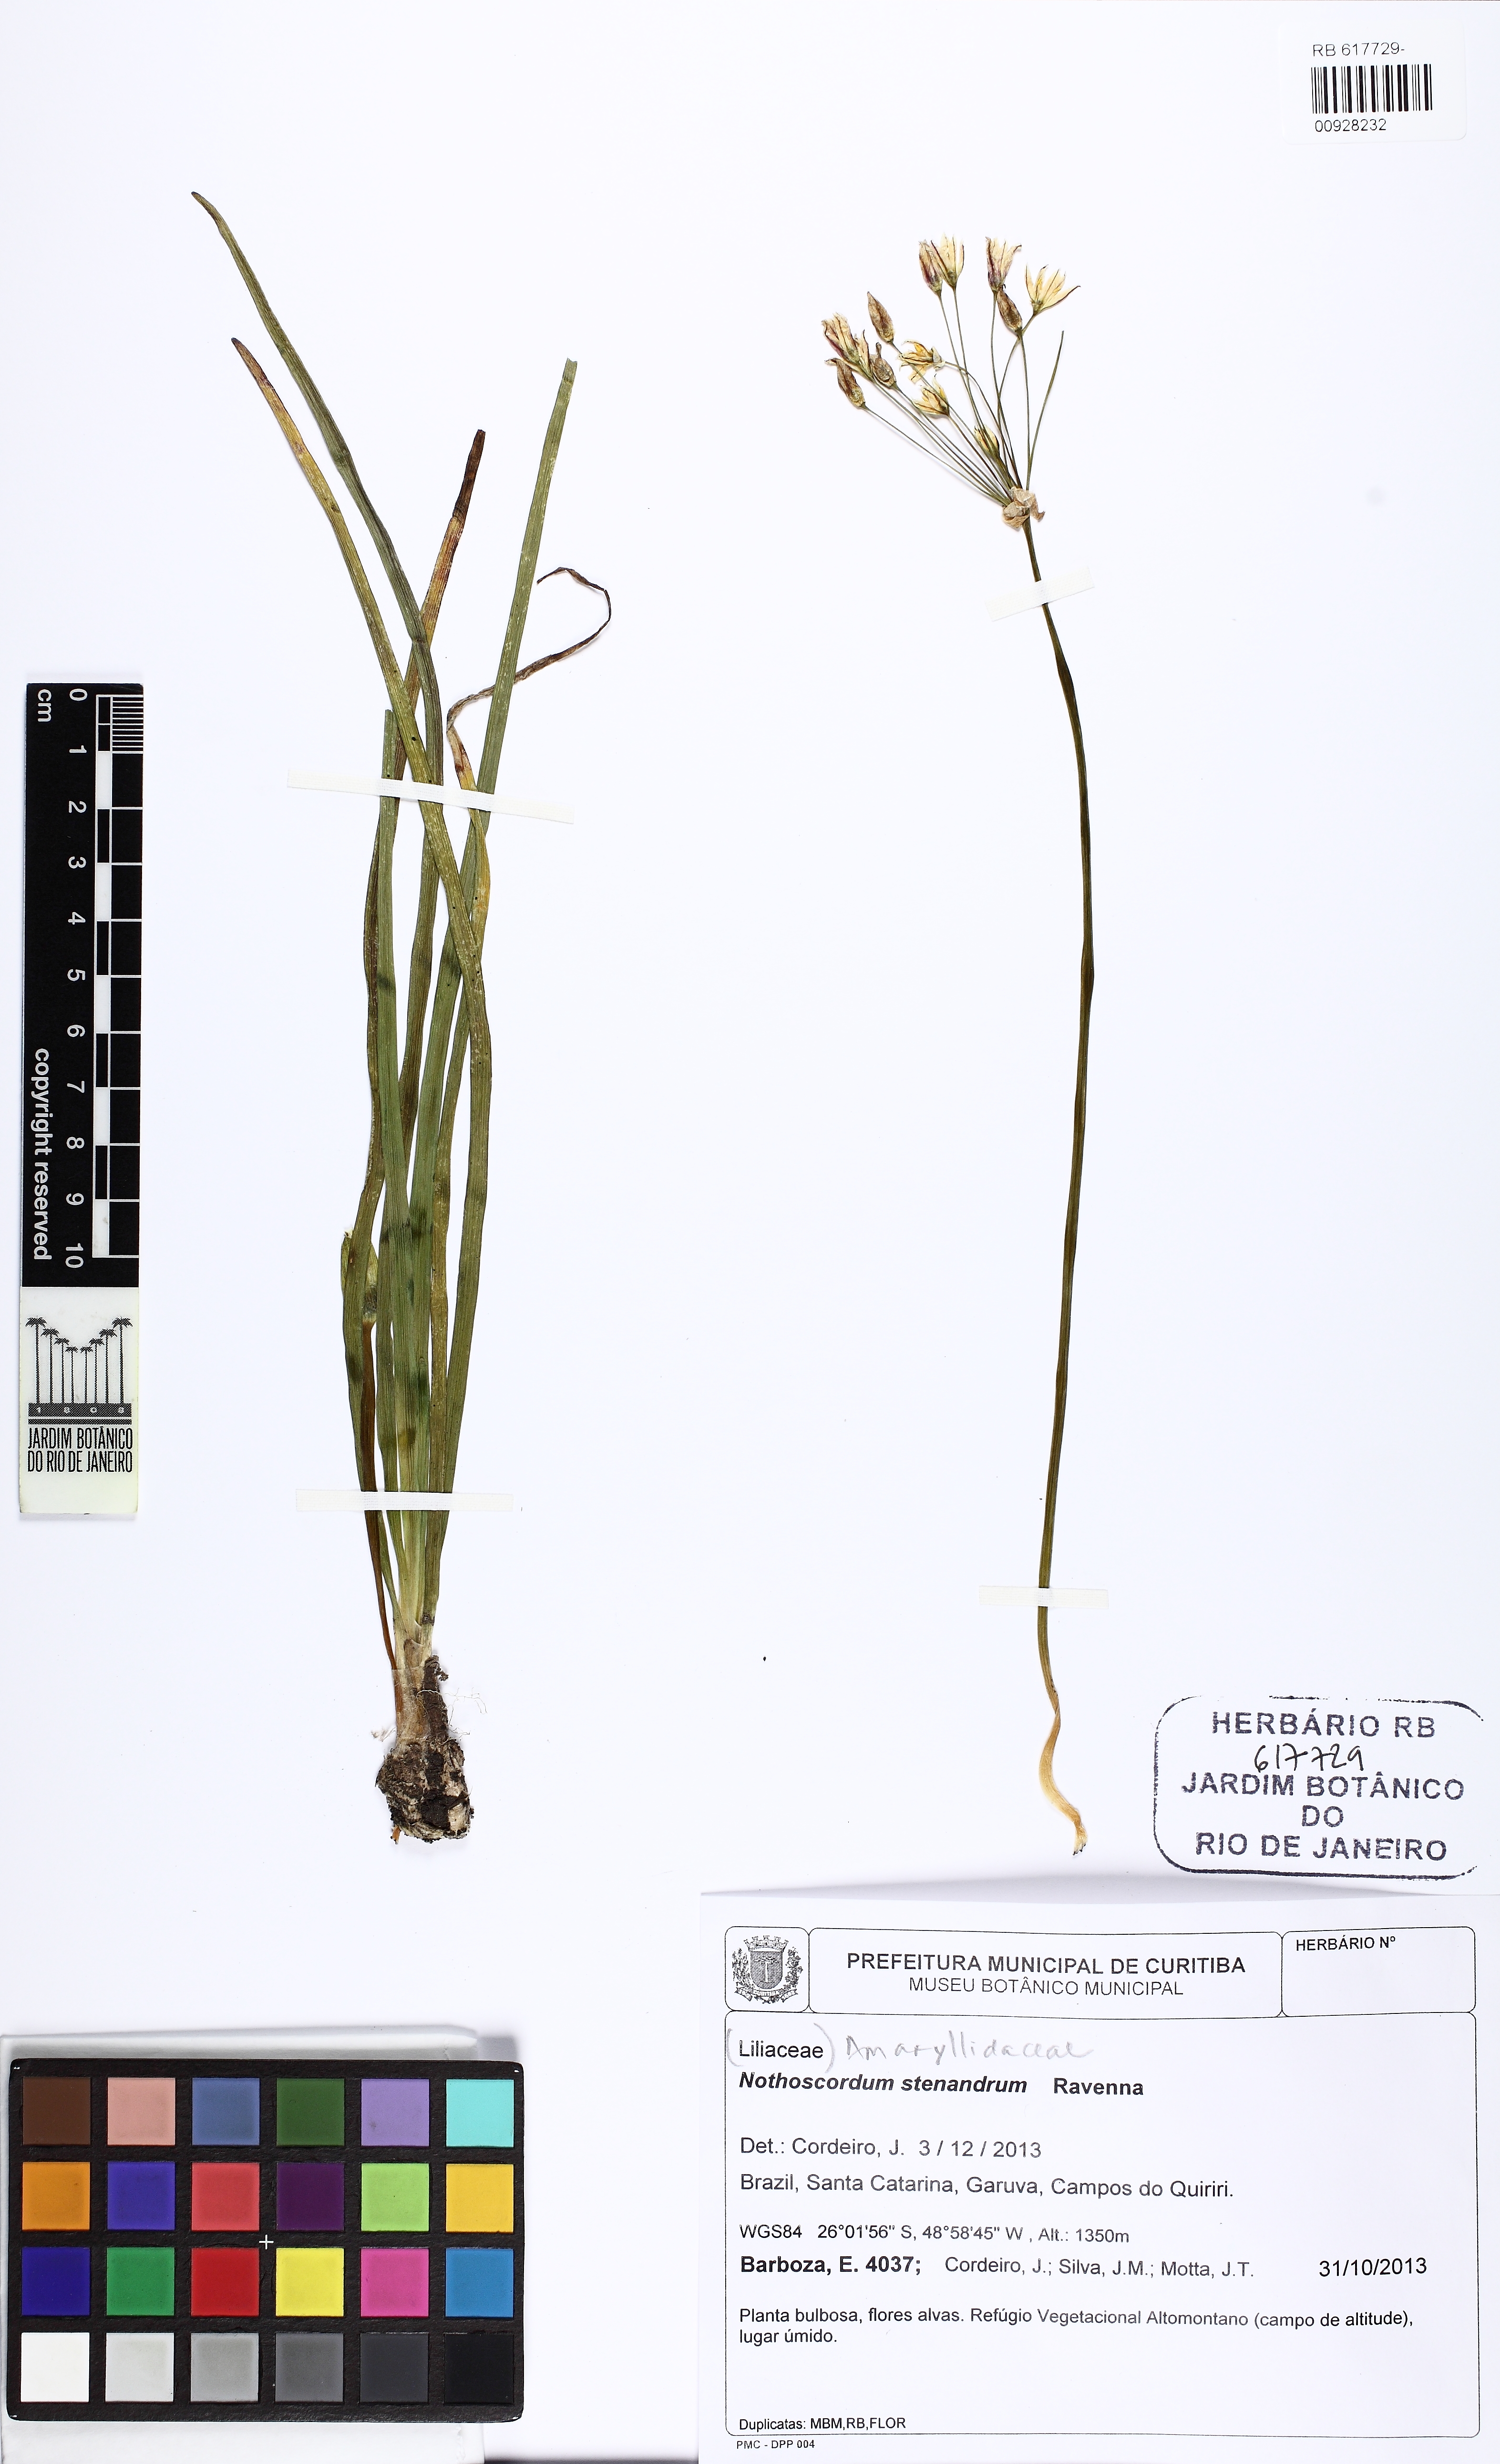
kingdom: Plantae
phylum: Tracheophyta
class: Liliopsida
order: Asparagales
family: Amaryllidaceae
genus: Nothoscordum
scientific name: Nothoscordum stenandrum
